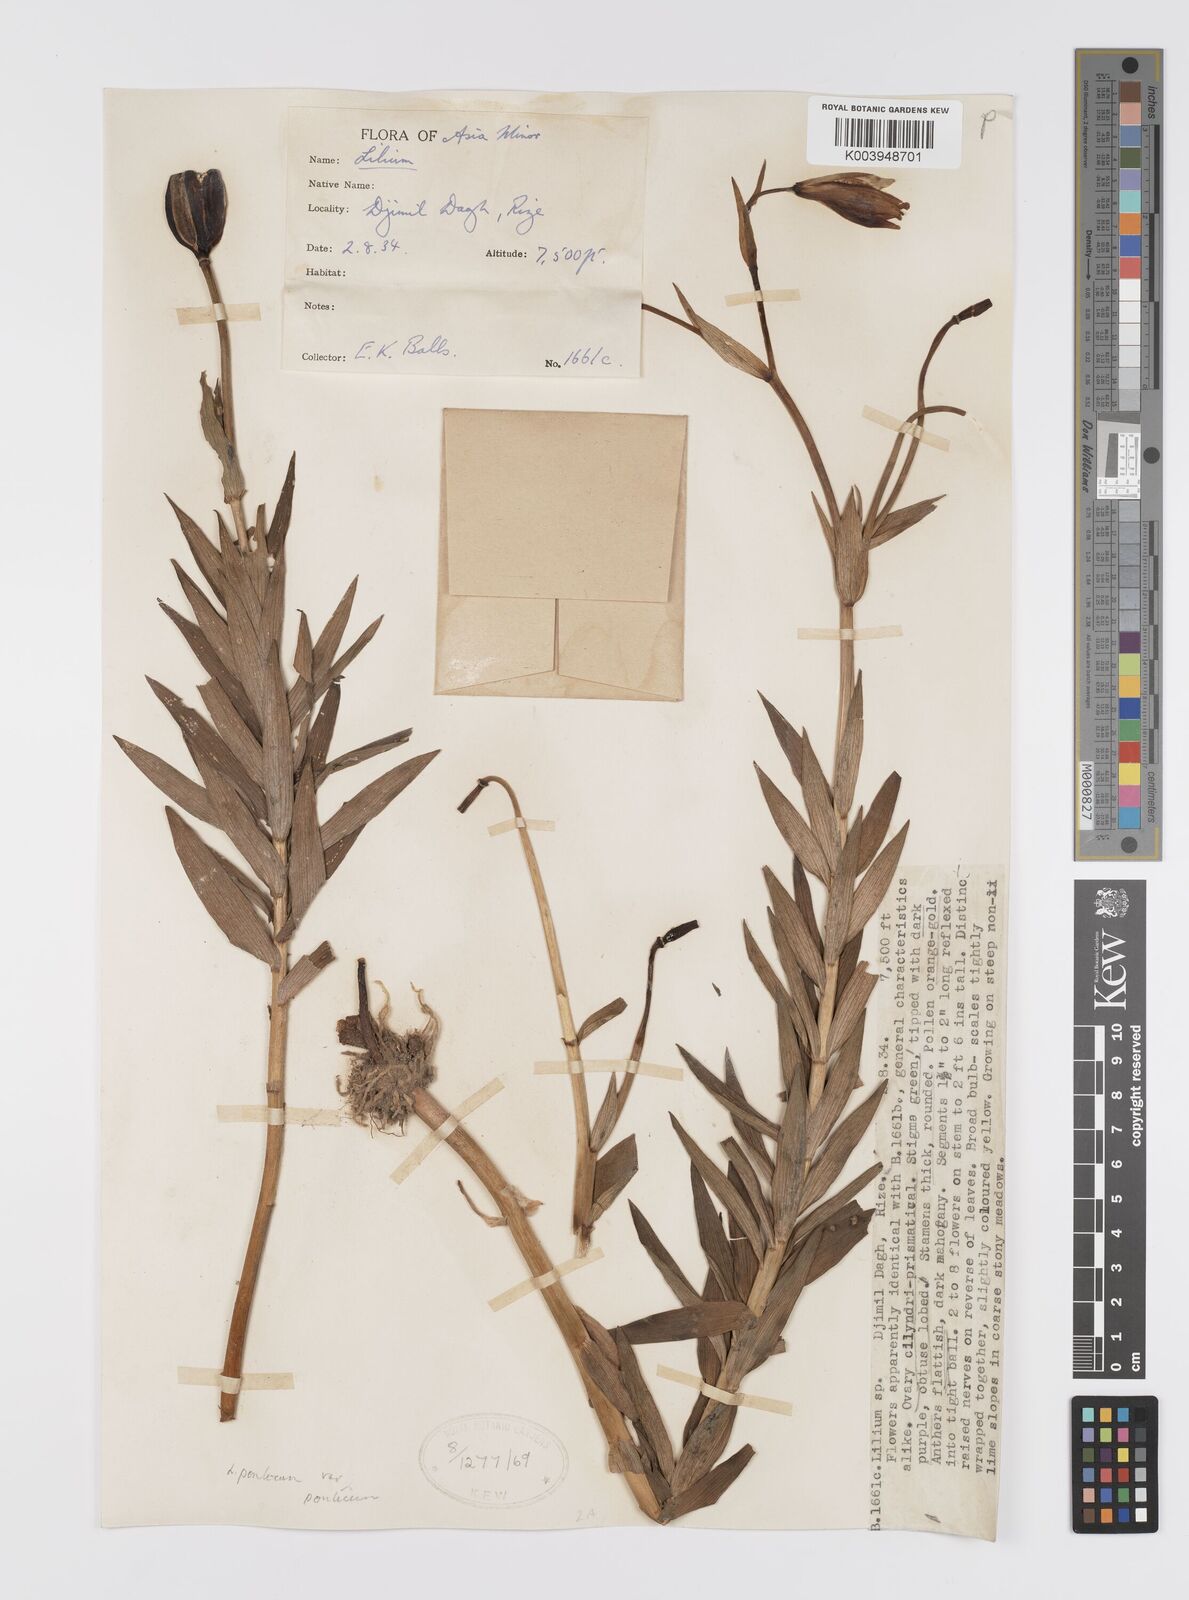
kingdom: Plantae
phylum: Tracheophyta
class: Liliopsida
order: Liliales
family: Liliaceae
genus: Lilium
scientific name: Lilium ponticum
